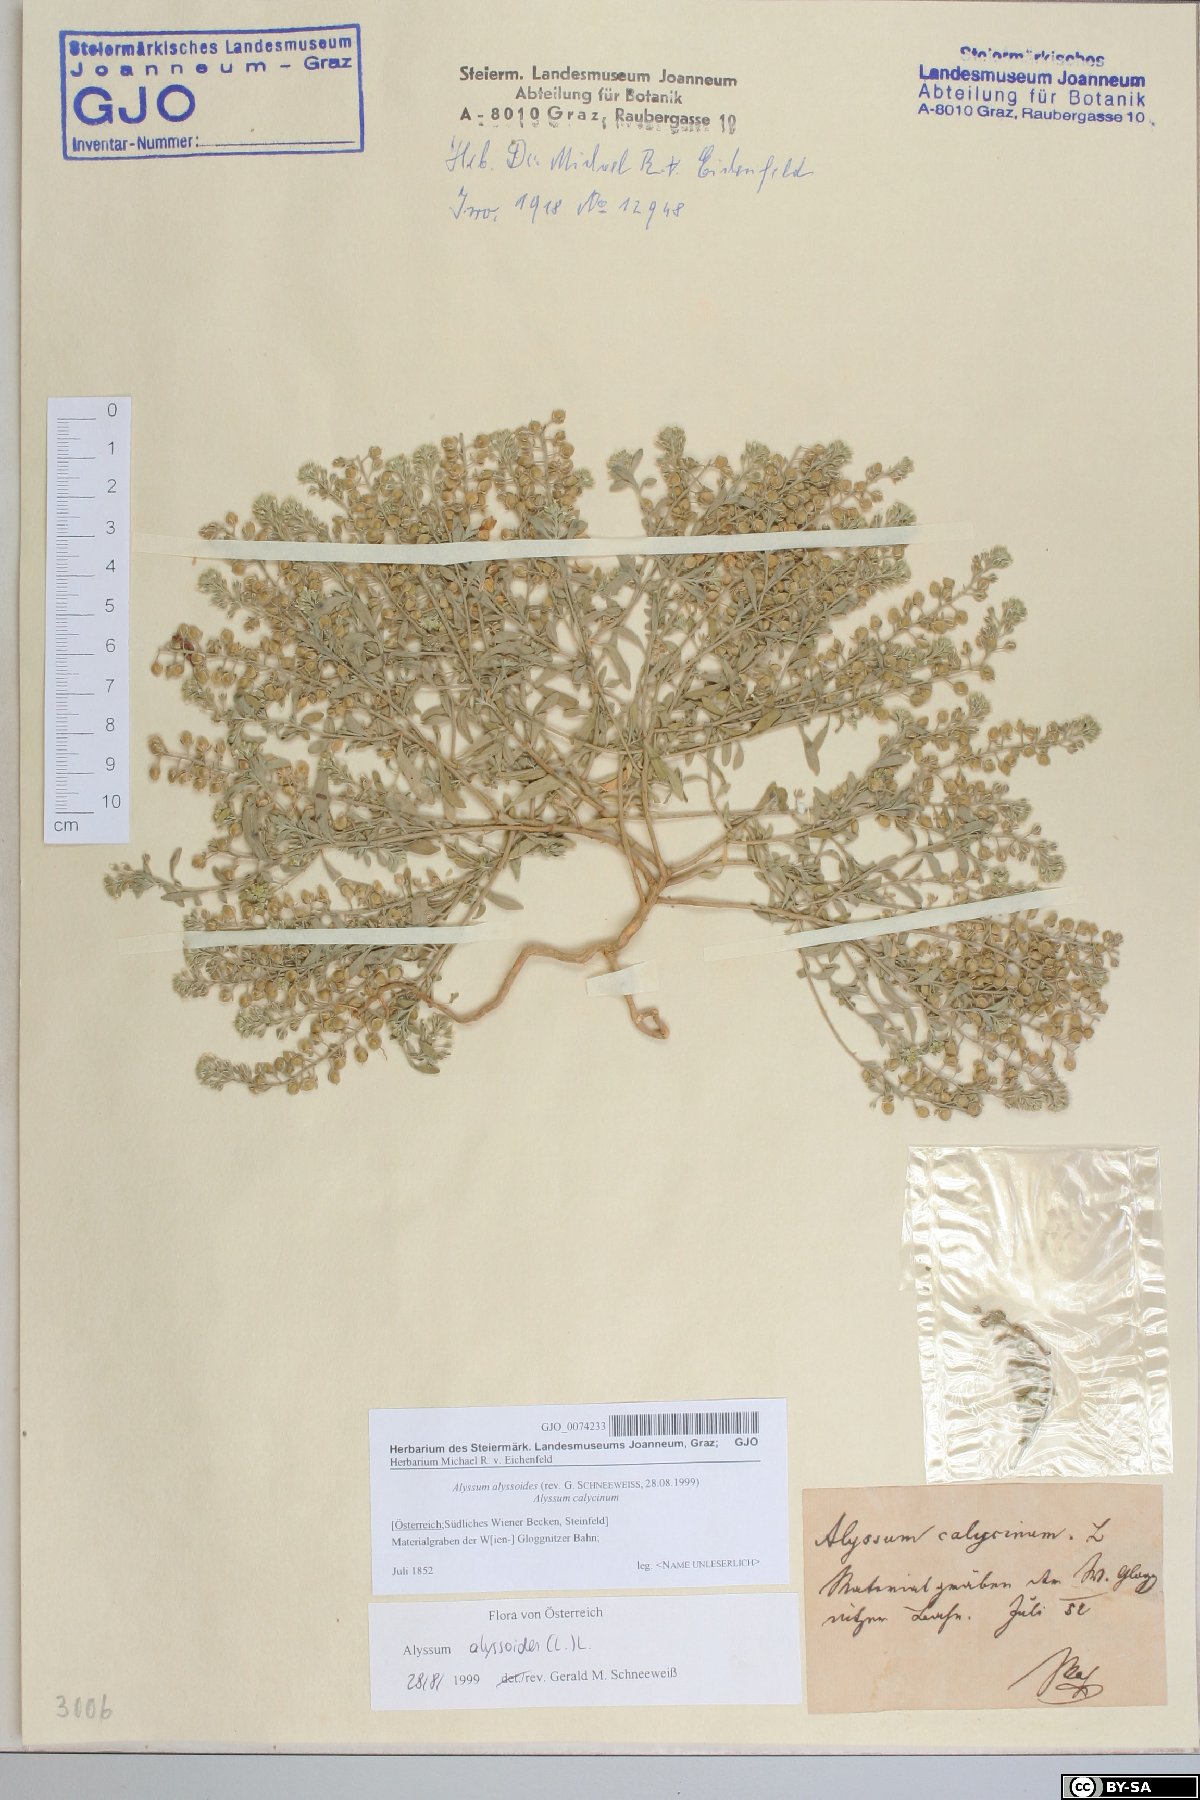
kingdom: Plantae
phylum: Tracheophyta
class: Magnoliopsida
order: Brassicales
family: Brassicaceae
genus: Alyssum
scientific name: Alyssum alyssoides
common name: Small alison
